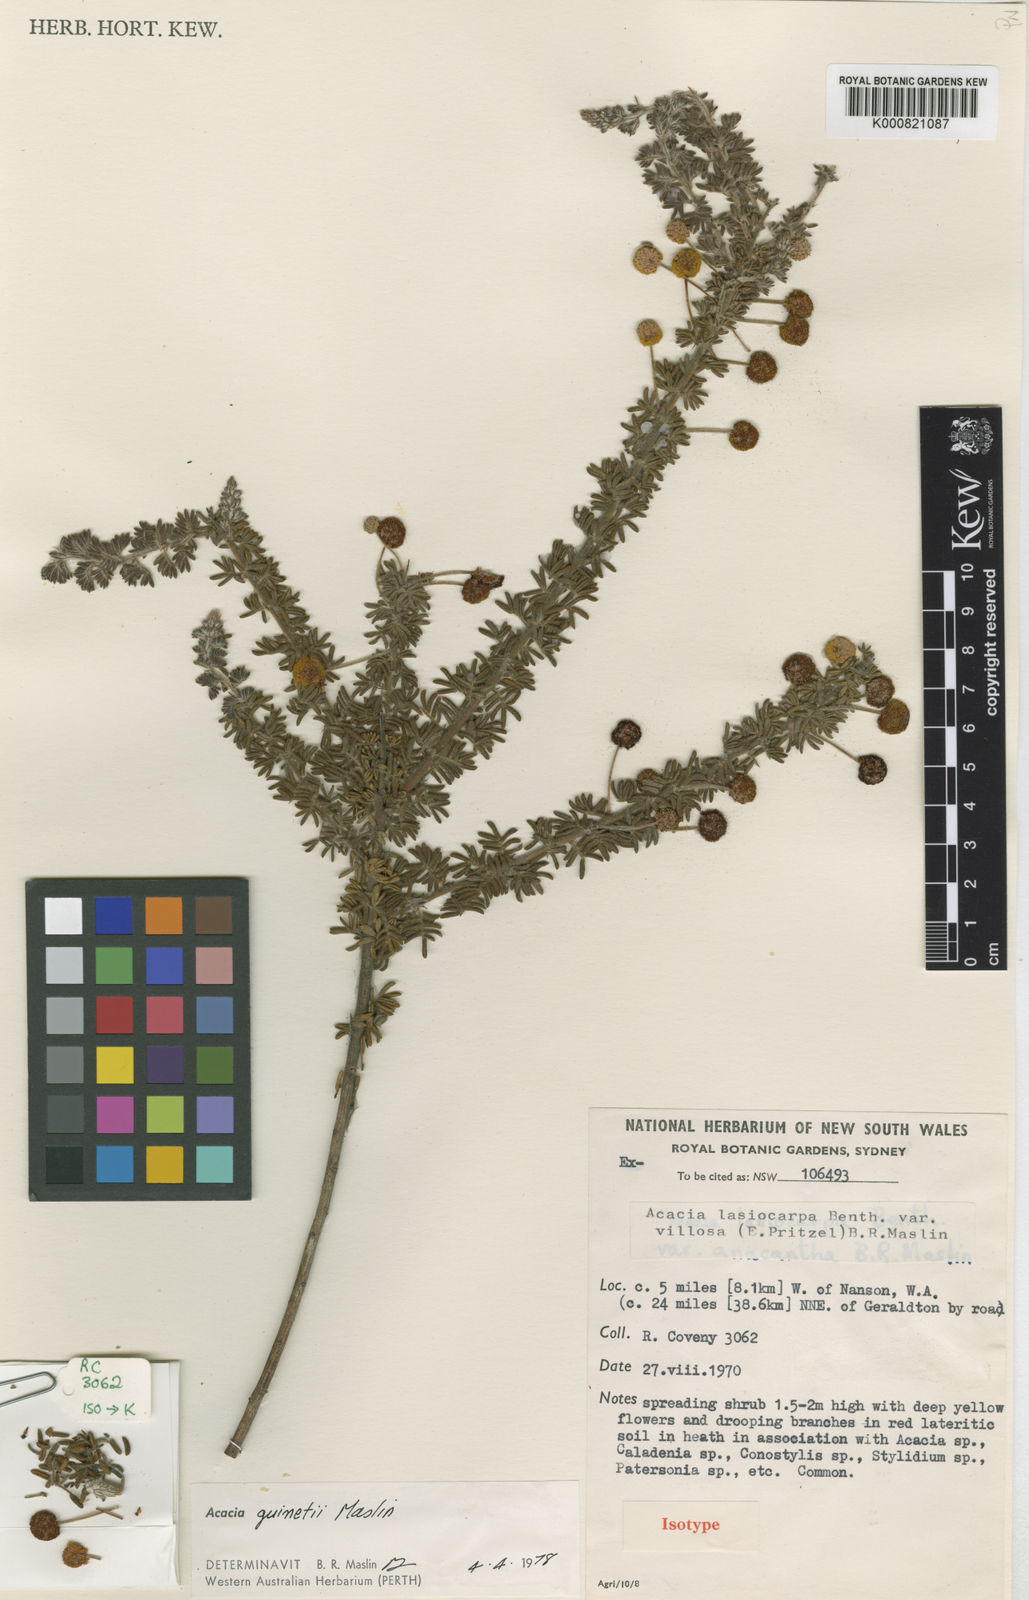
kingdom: Plantae
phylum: Tracheophyta
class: Magnoliopsida
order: Fabales
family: Fabaceae
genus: Acacia
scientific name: Acacia guinetii
